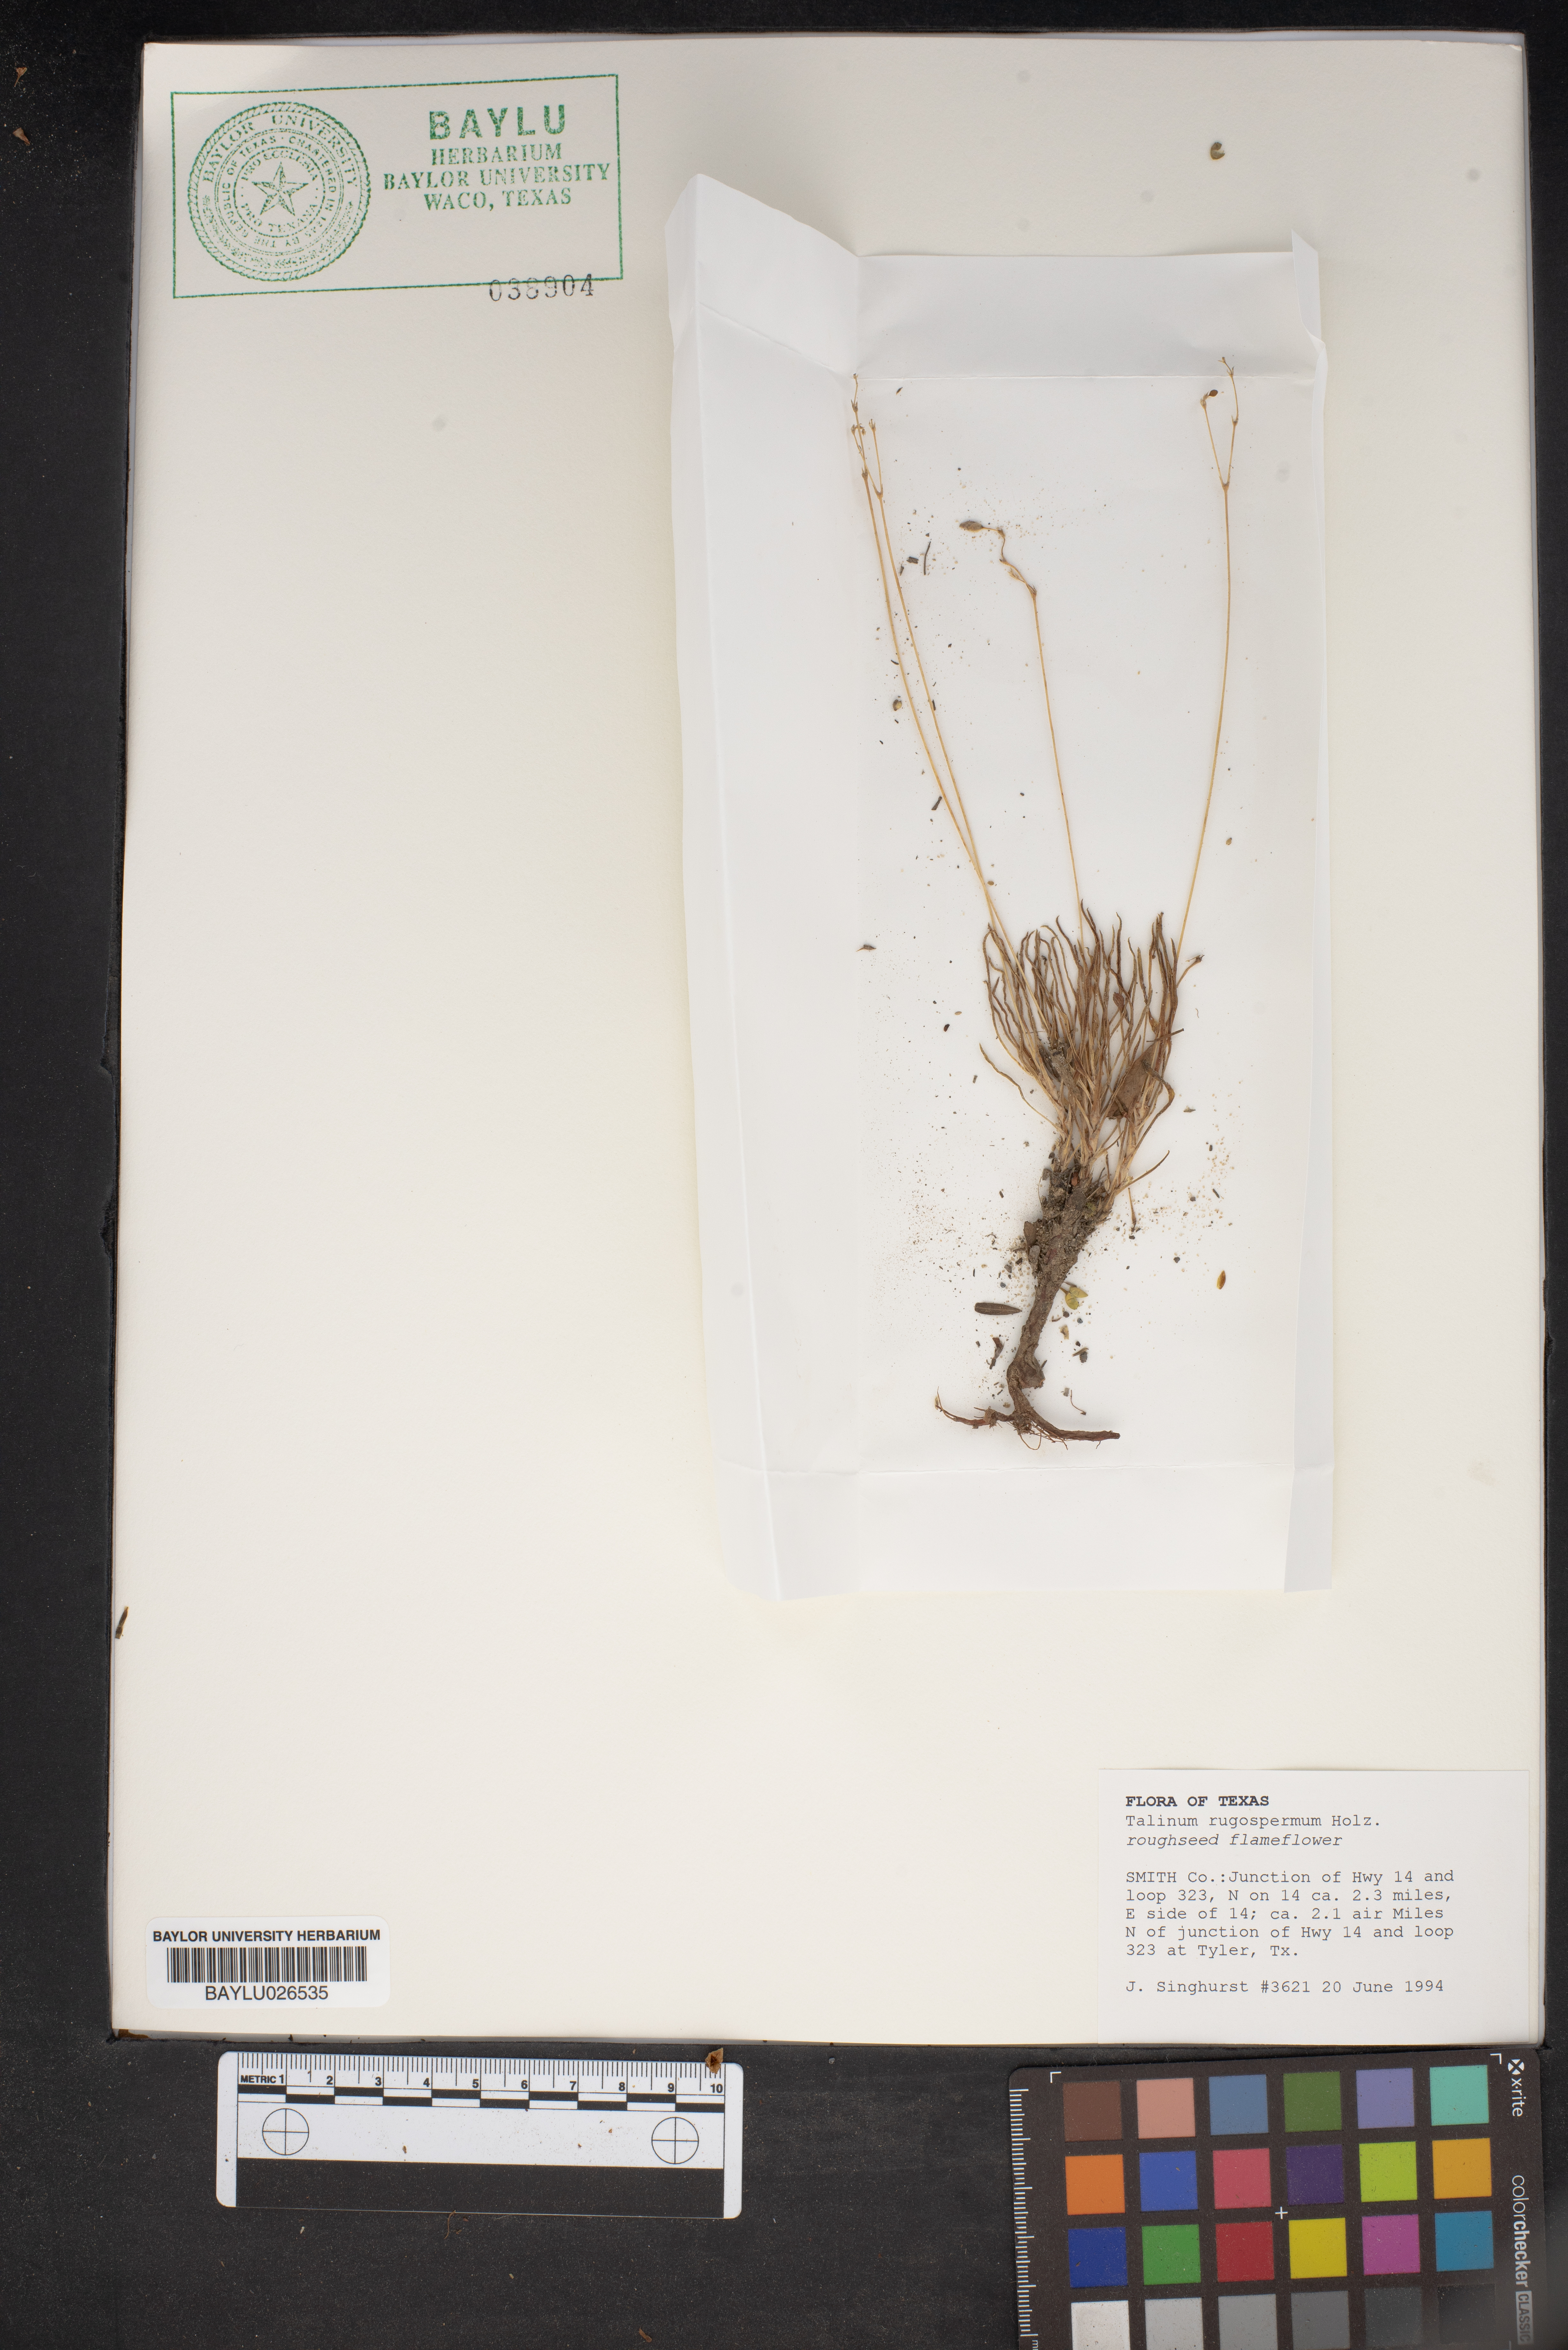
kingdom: Plantae
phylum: Tracheophyta
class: Magnoliopsida
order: Caryophyllales
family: Montiaceae
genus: Phemeranthus
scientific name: Phemeranthus rugospermus
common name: Prairie fameflower
